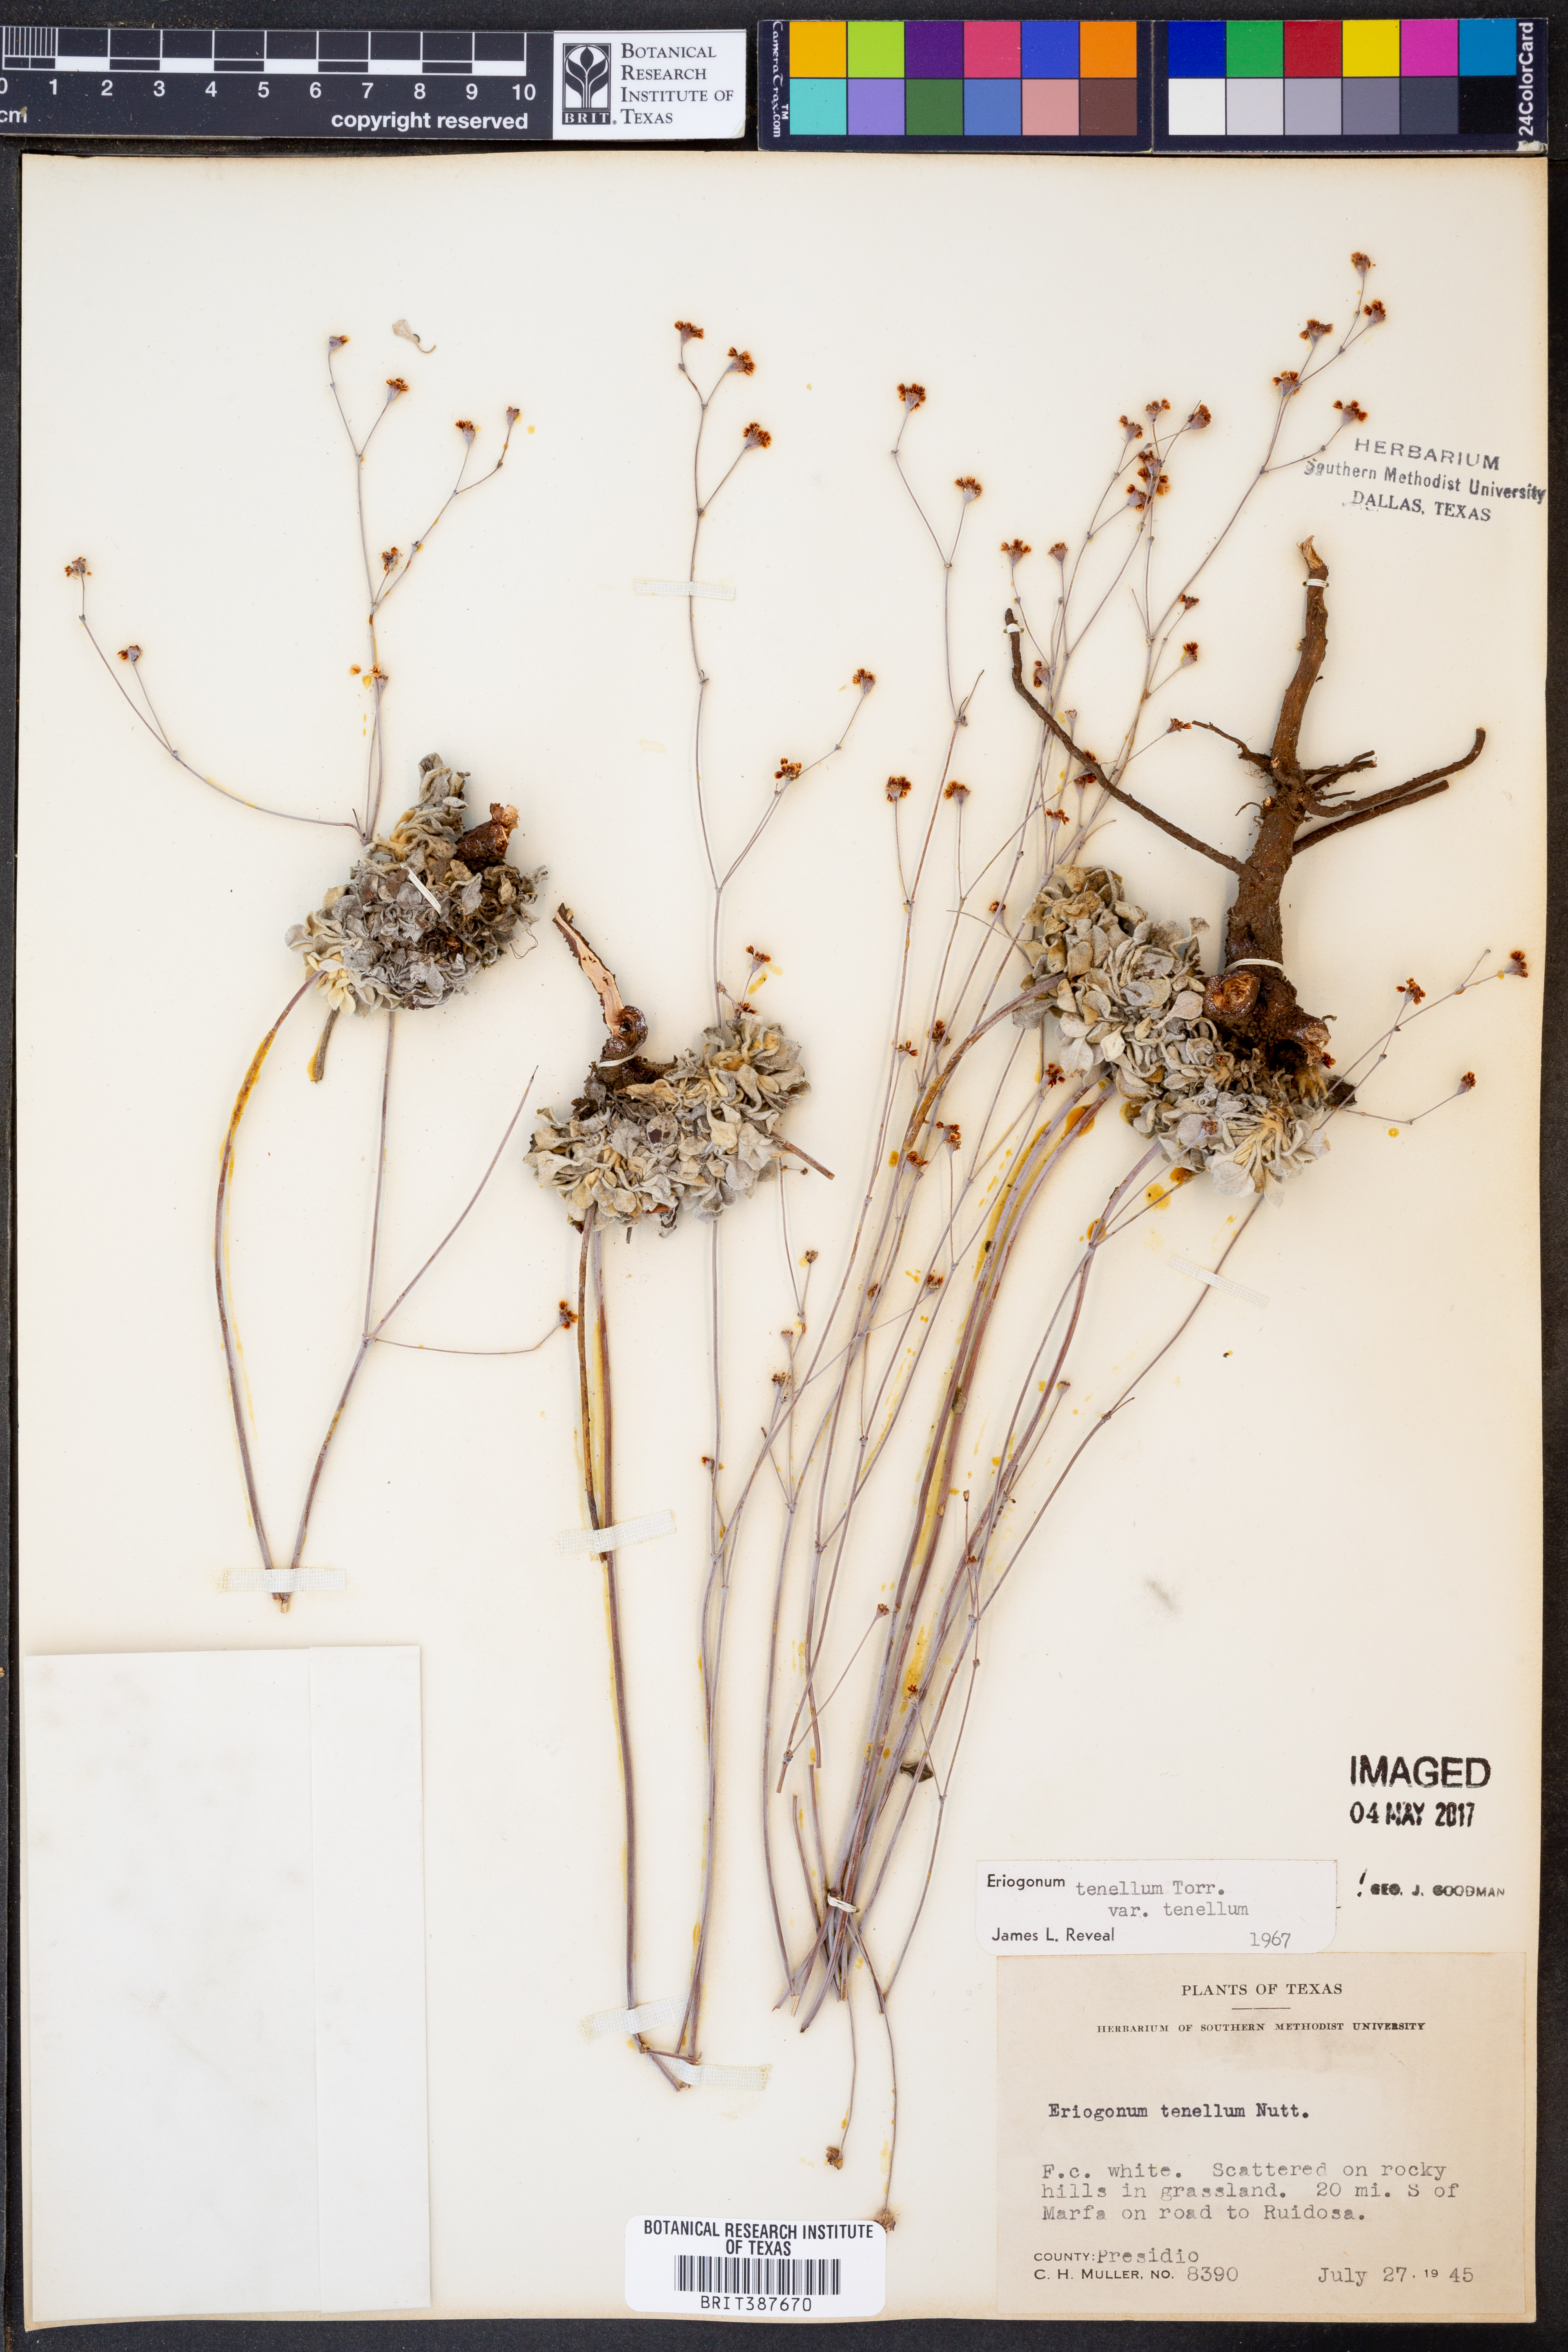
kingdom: Plantae
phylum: Tracheophyta
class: Magnoliopsida
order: Caryophyllales
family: Polygonaceae
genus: Eriogonum
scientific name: Eriogonum tenellum
